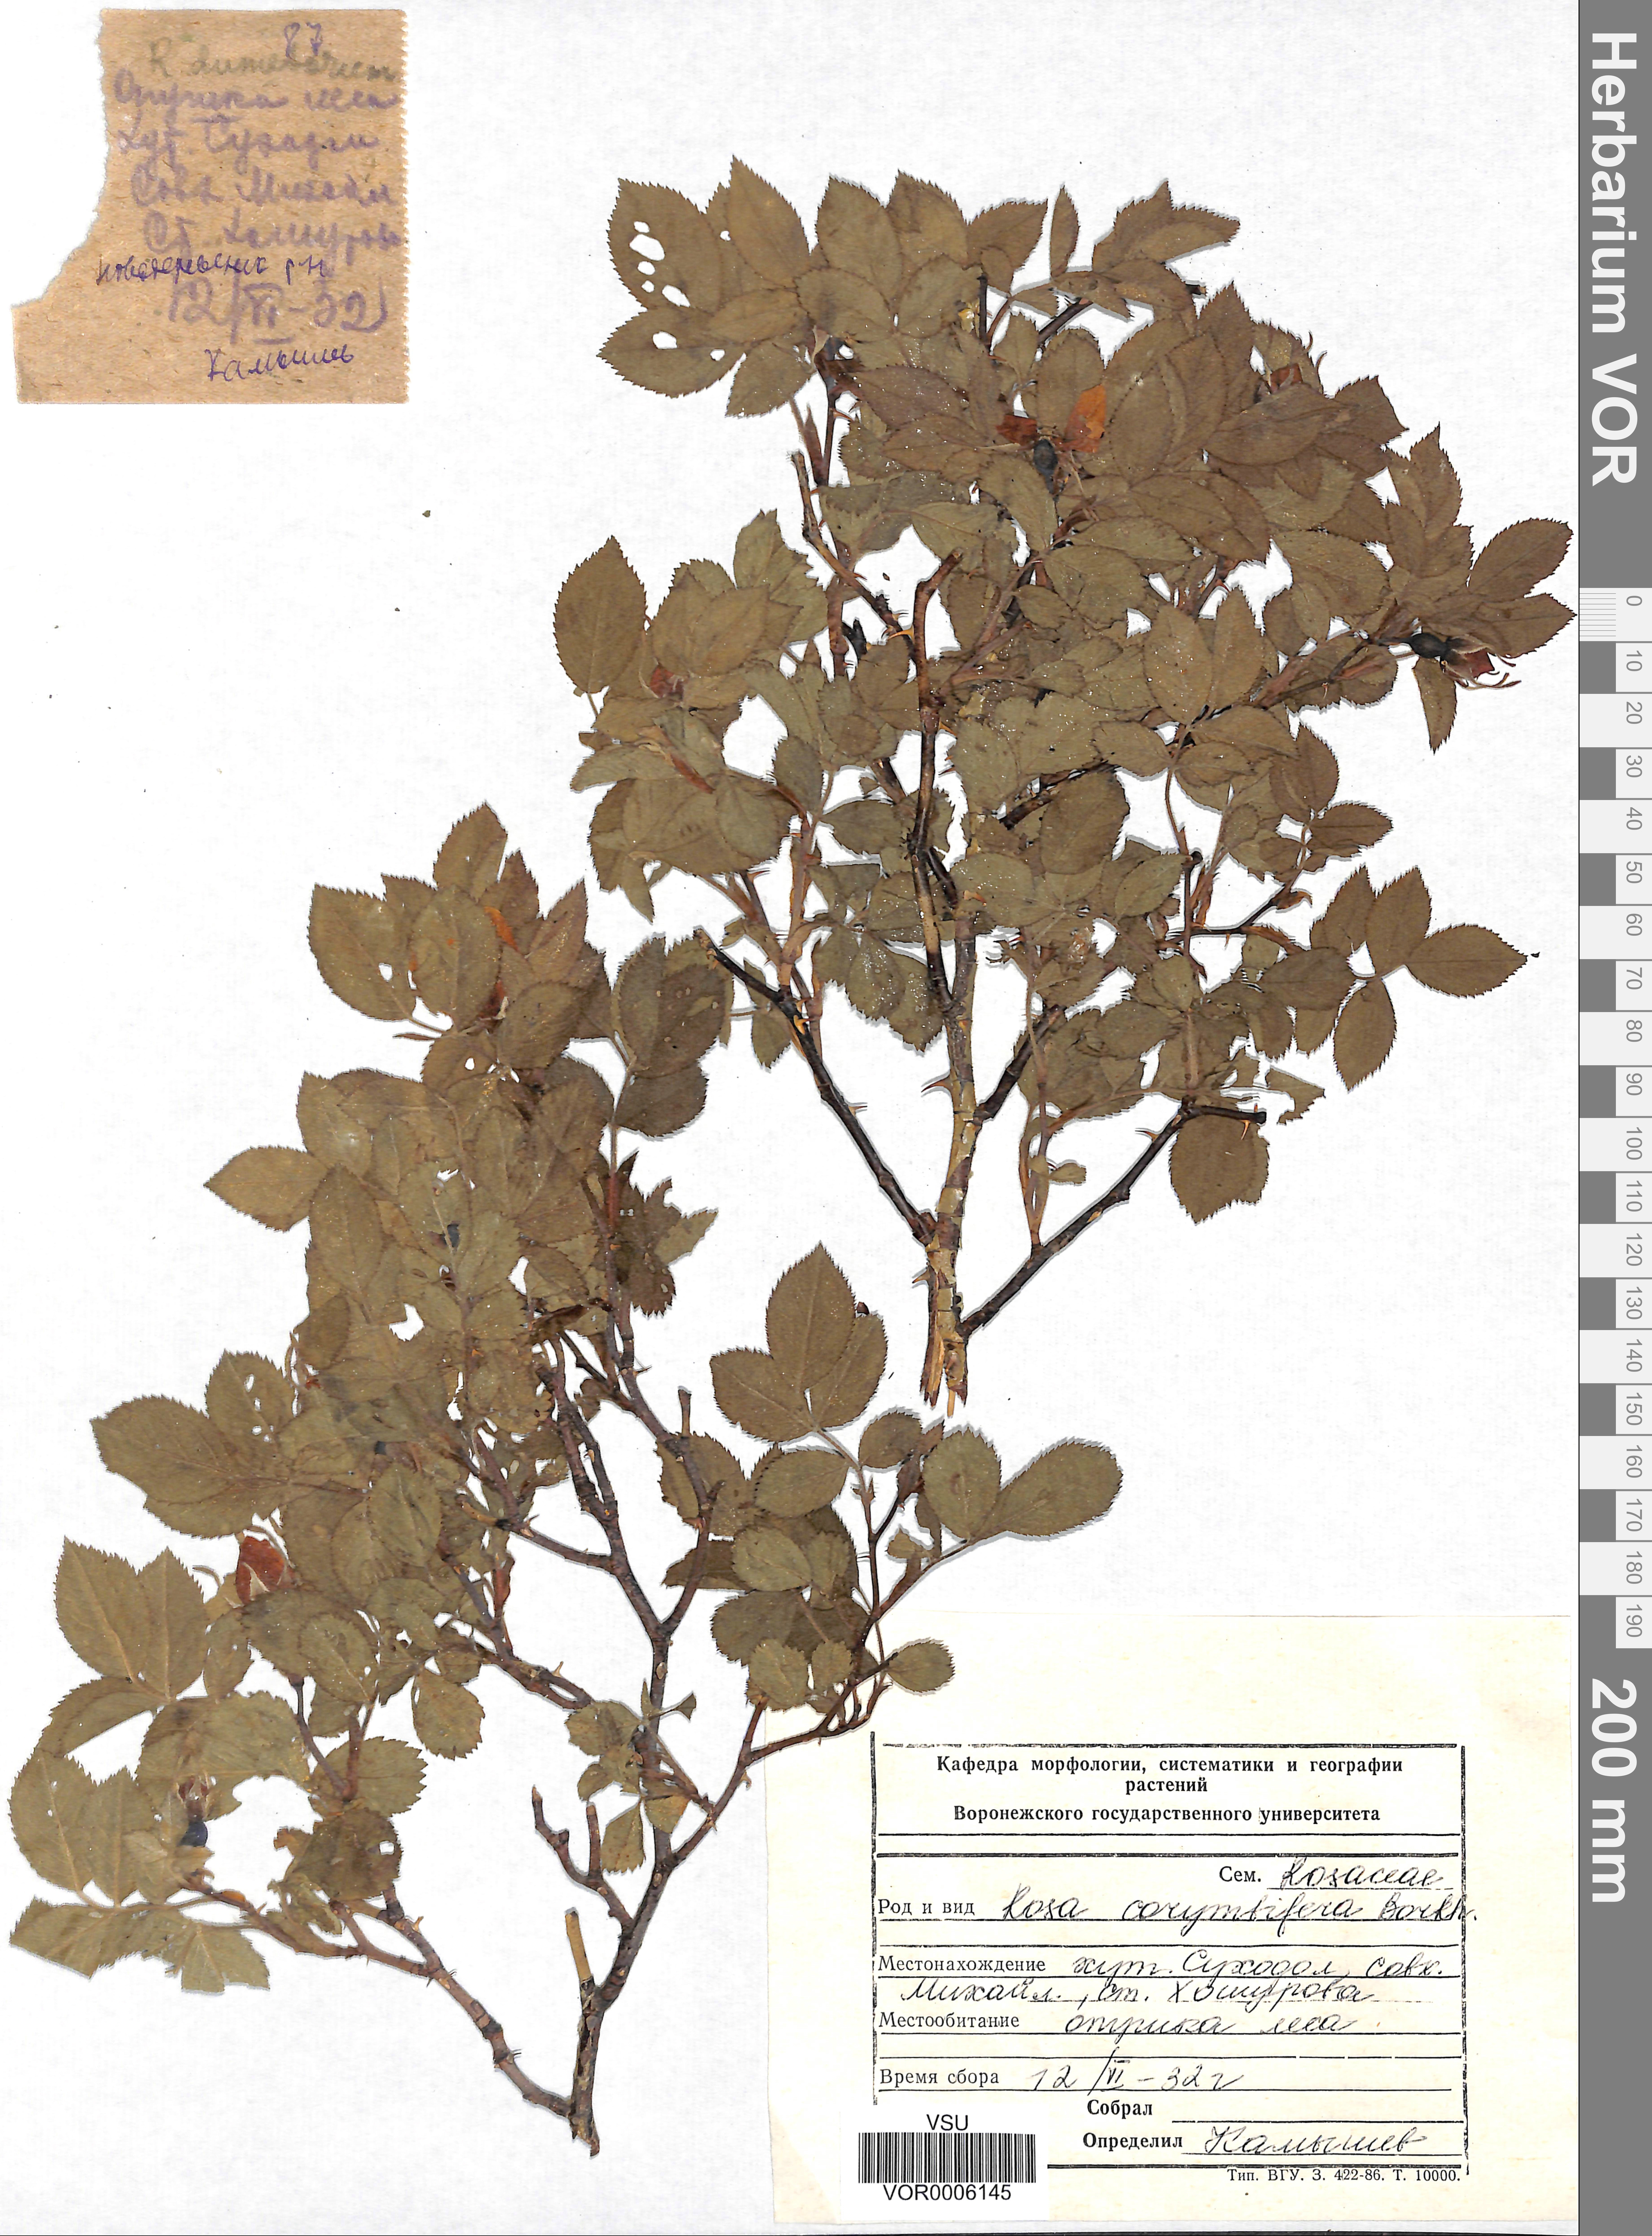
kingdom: Plantae
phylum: Tracheophyta
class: Magnoliopsida
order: Rosales
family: Rosaceae
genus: Rosa
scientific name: Rosa corymbifera
